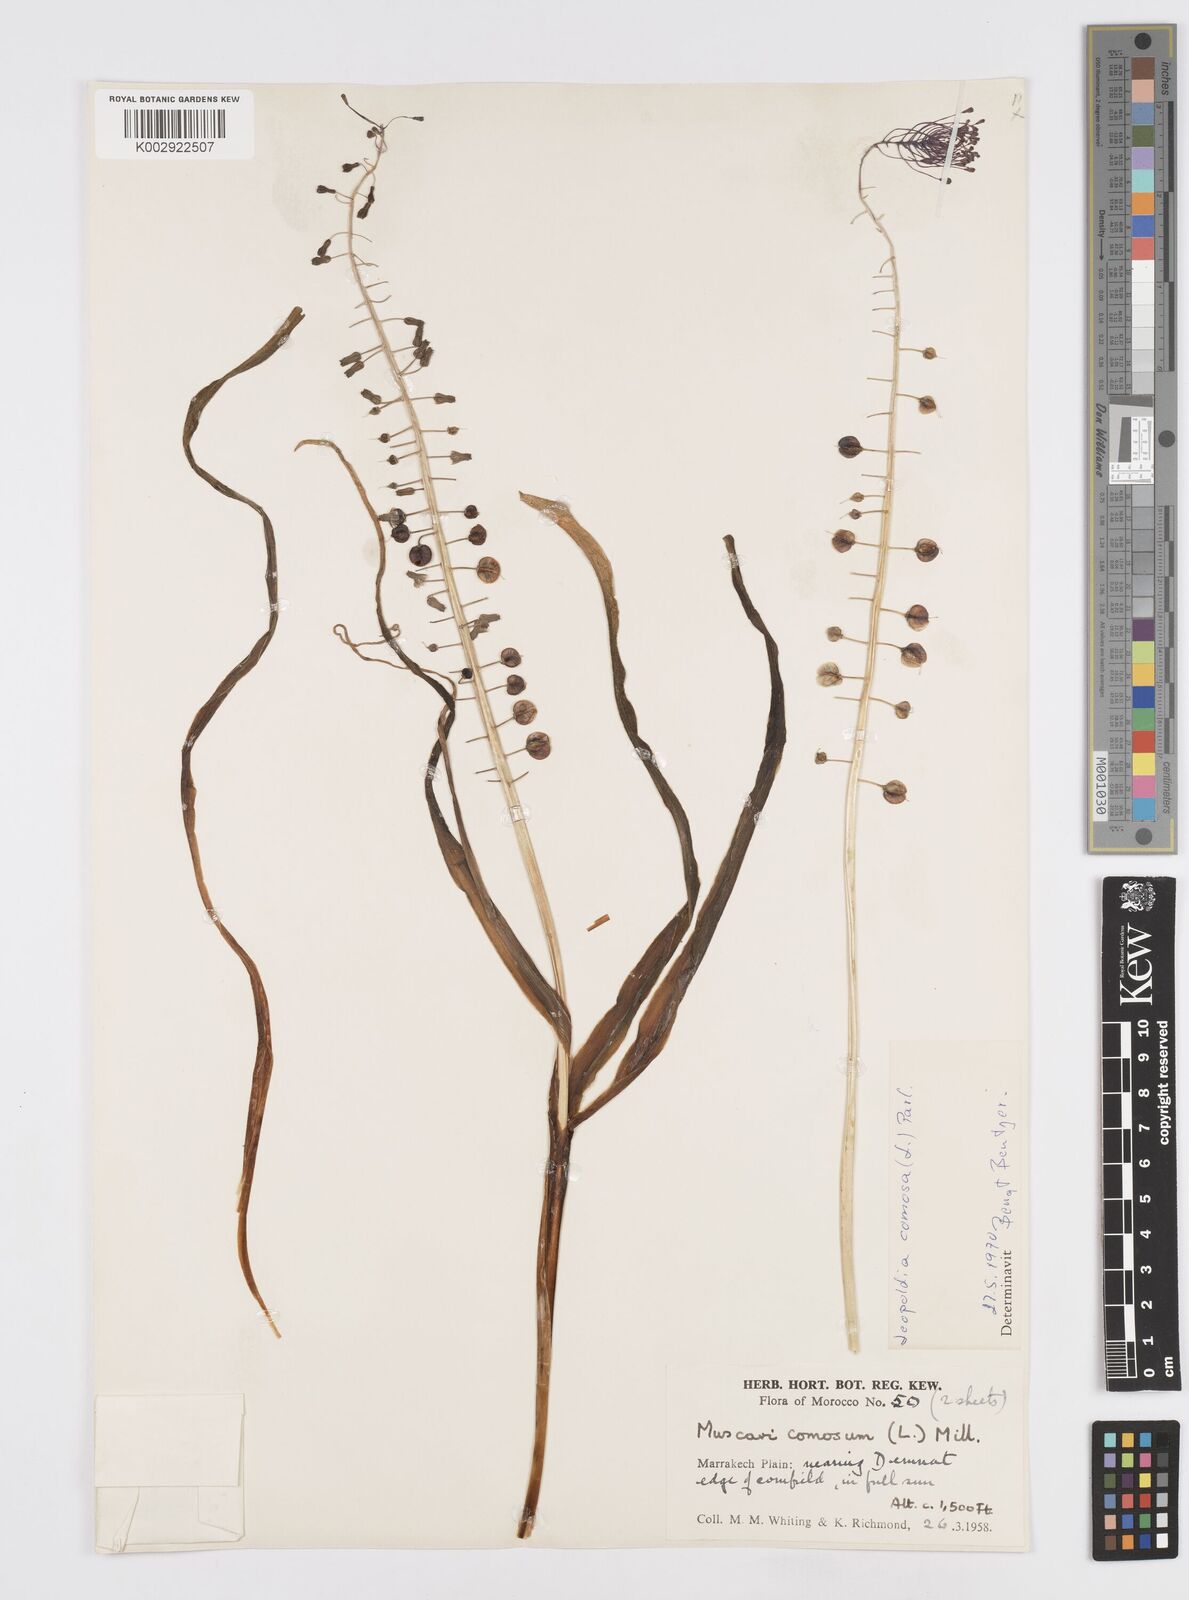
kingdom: Plantae
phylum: Tracheophyta
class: Liliopsida
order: Asparagales
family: Asparagaceae
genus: Muscari
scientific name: Muscari comosum
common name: Tassel hyacinth
